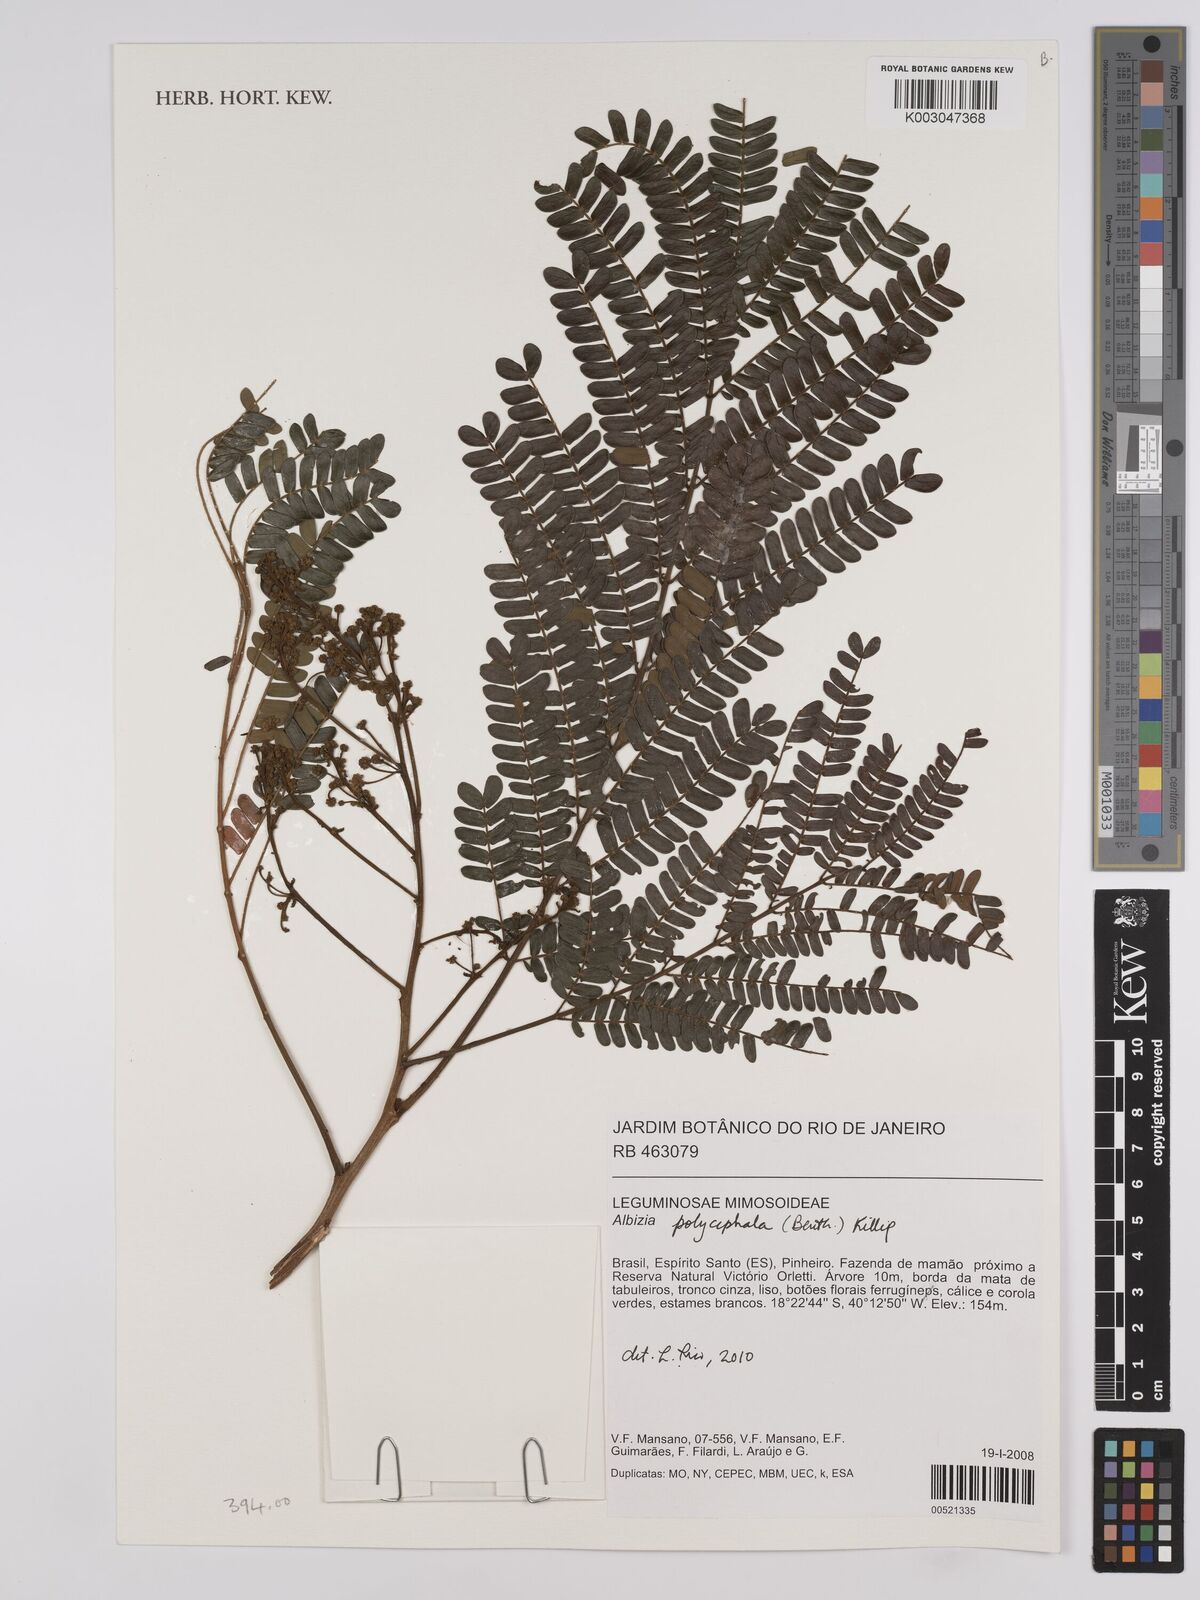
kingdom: Plantae
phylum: Tracheophyta
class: Magnoliopsida
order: Fabales
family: Fabaceae
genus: Albizia
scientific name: Albizia polycephala
